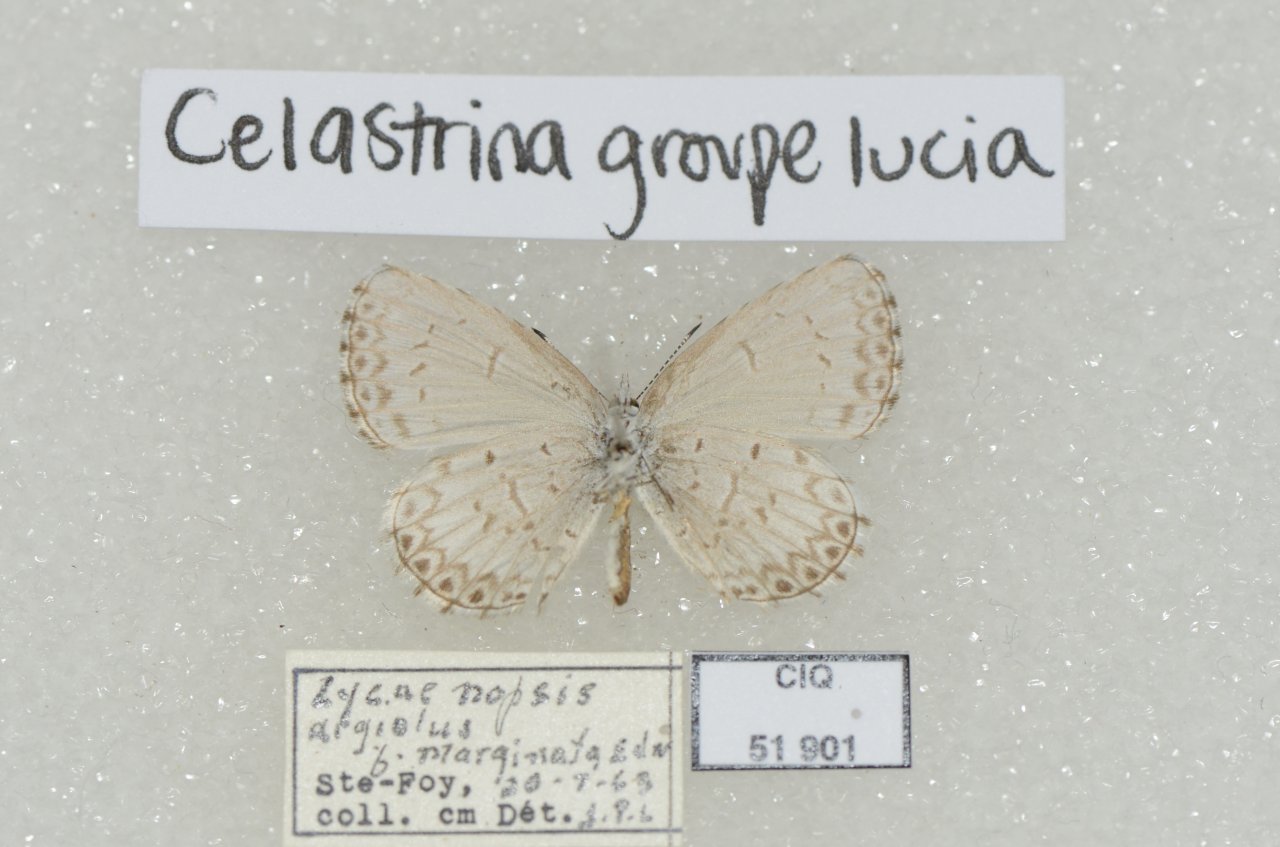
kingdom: Animalia
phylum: Arthropoda
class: Insecta
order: Lepidoptera
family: Lycaenidae
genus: Celastrina
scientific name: Celastrina lucia
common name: Northern Spring Azure
